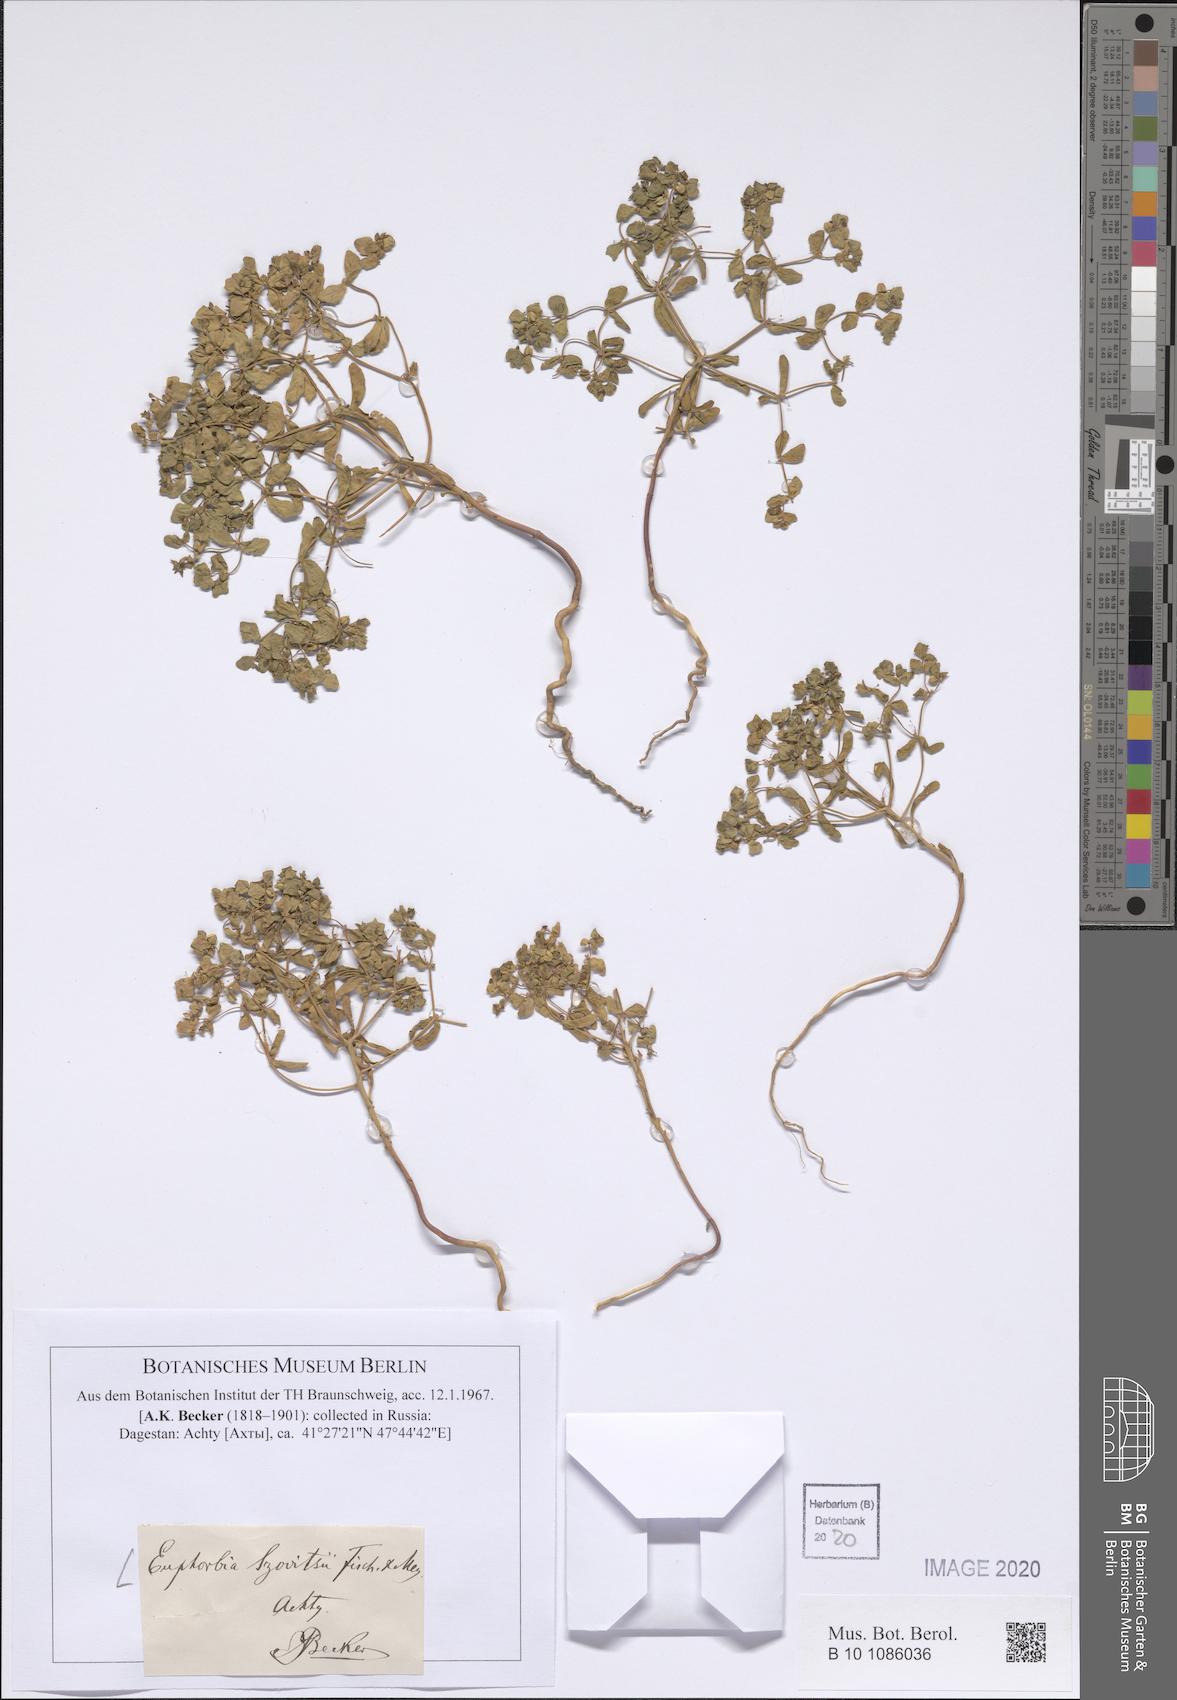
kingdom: Plantae
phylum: Tracheophyta
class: Magnoliopsida
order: Malpighiales
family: Euphorbiaceae
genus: Euphorbia
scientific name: Euphorbia szovitsii
